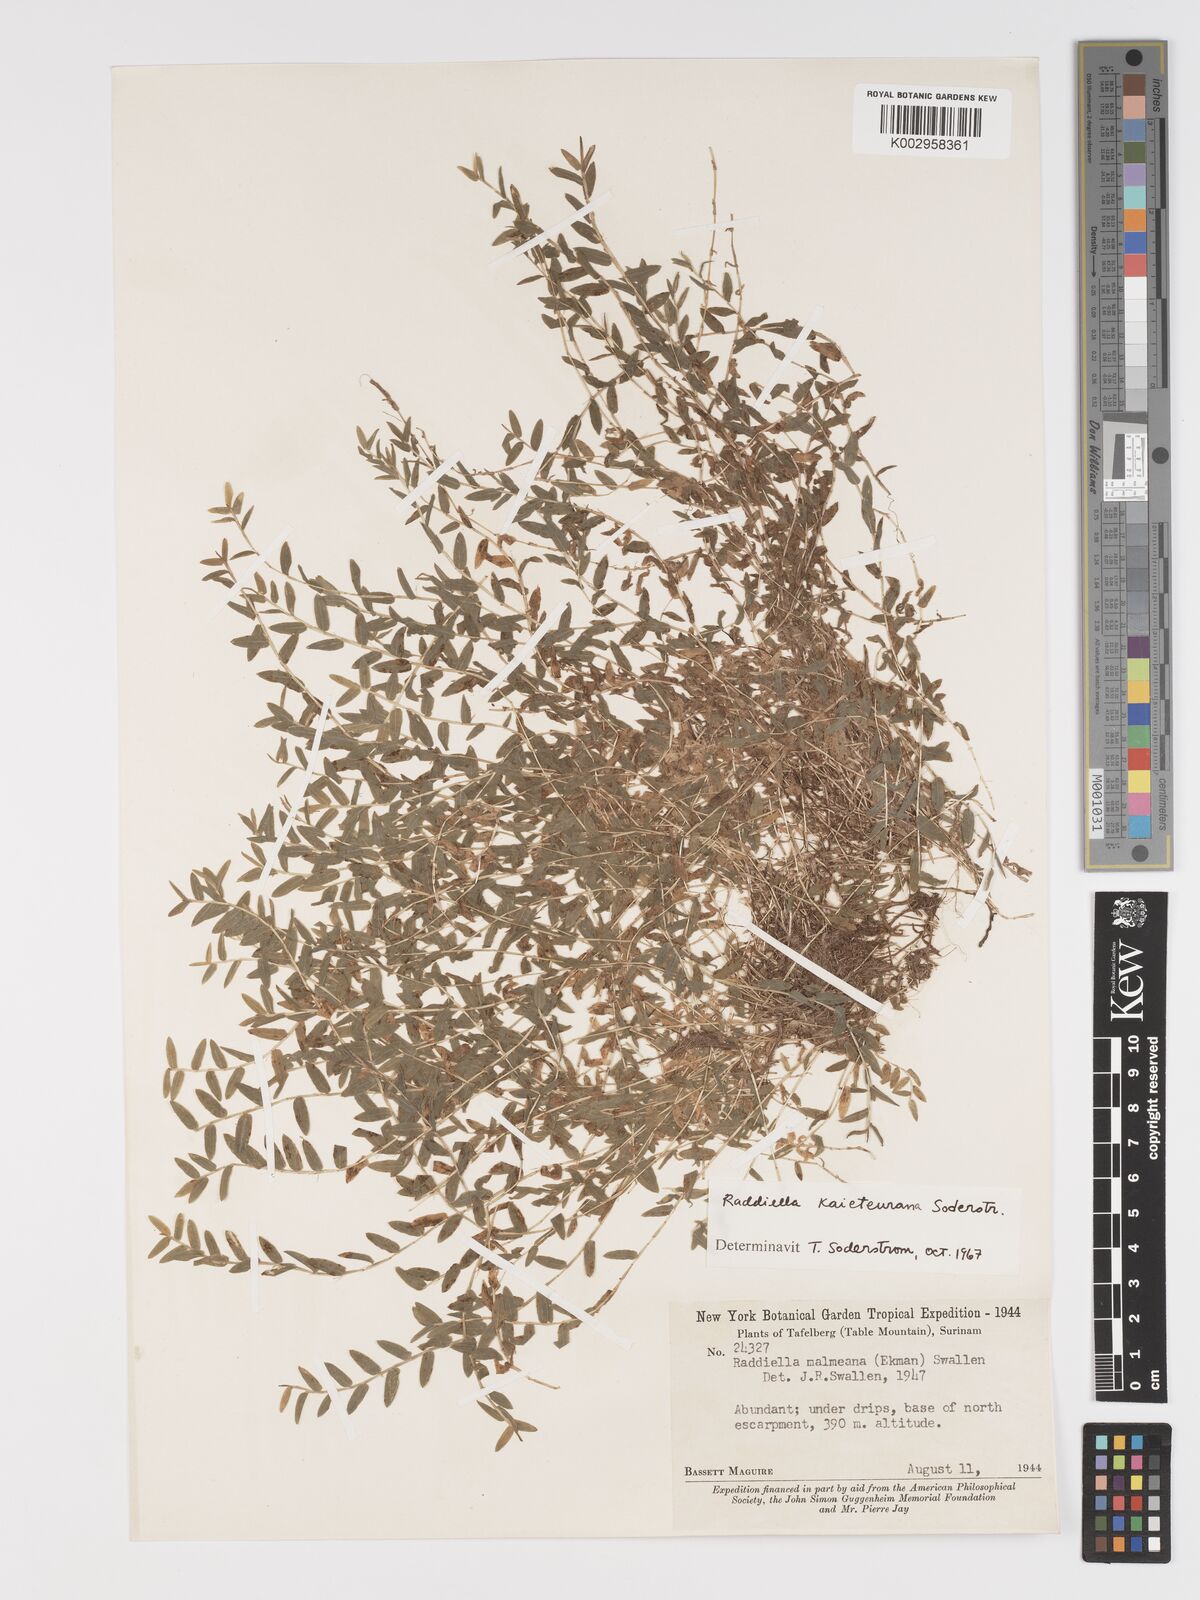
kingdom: Plantae
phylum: Tracheophyta
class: Liliopsida
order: Poales
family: Poaceae
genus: Raddiella
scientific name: Raddiella kaieteurana
